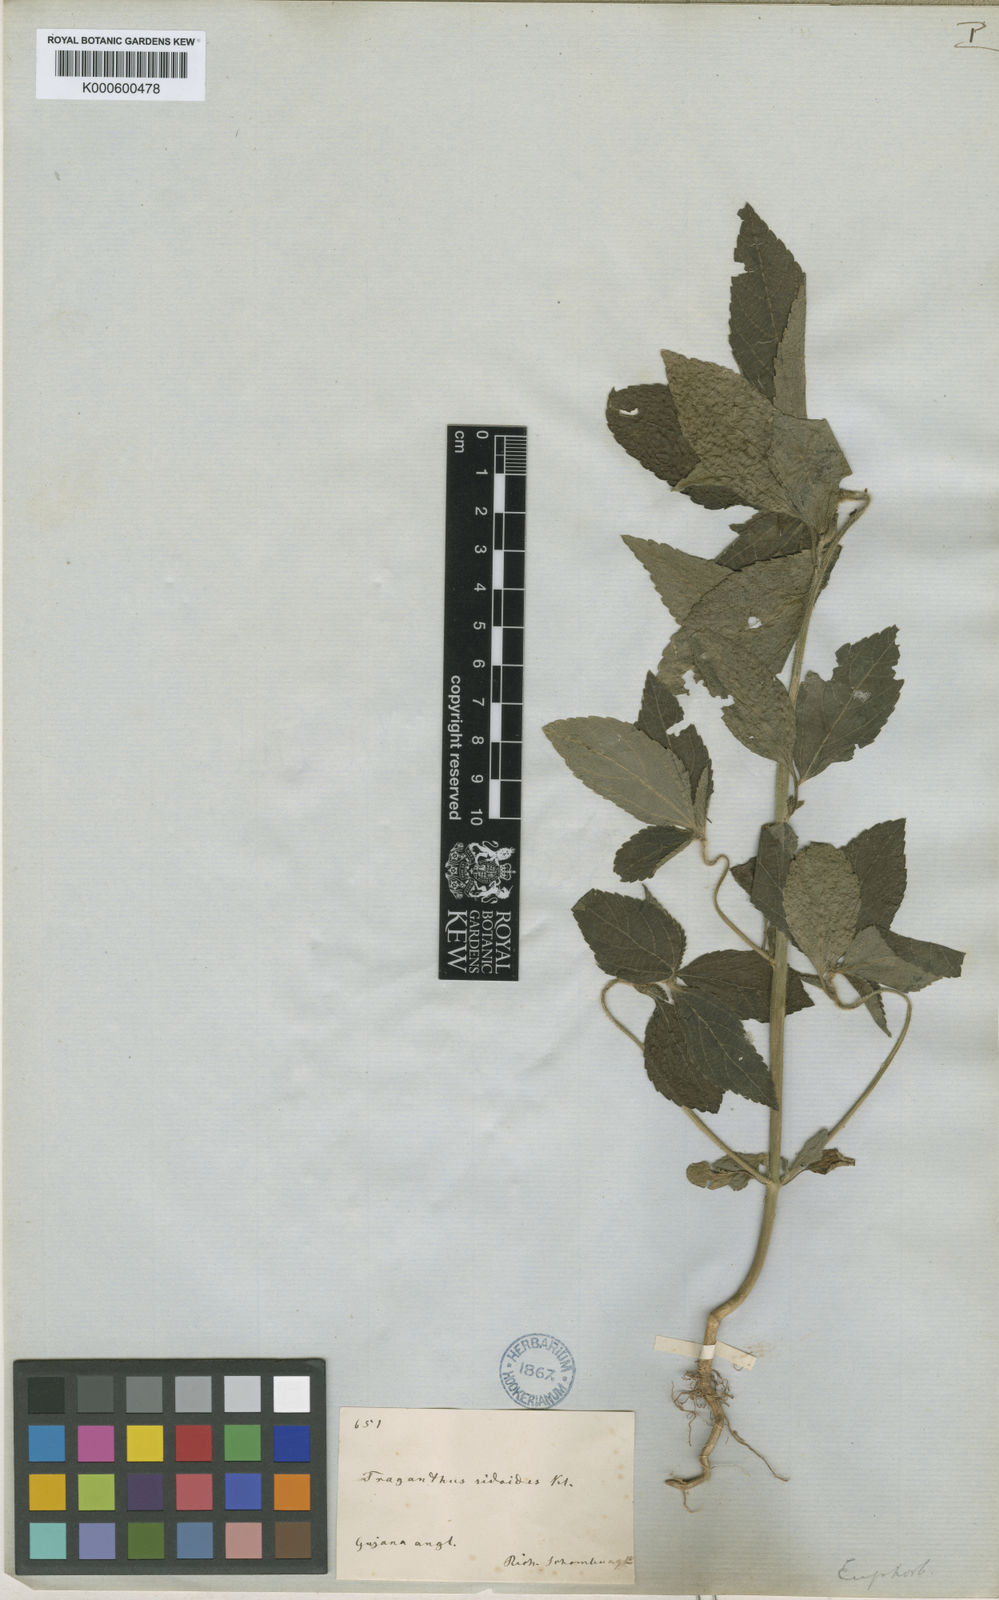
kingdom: Plantae
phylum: Tracheophyta
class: Magnoliopsida
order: Malpighiales
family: Euphorbiaceae
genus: Bernardia
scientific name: Bernardia
